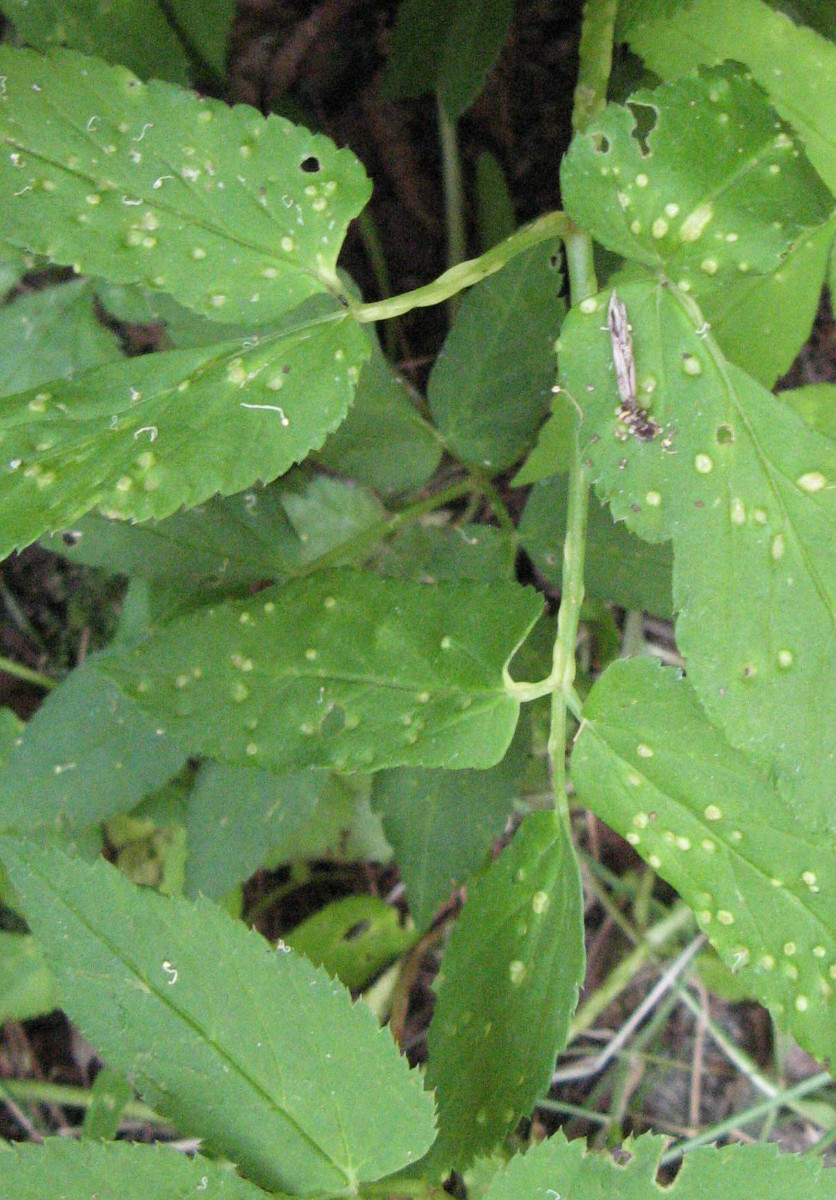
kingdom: Fungi
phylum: Ascomycota
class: Taphrinomycetes
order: Taphrinales
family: Taphrinaceae
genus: Protomyces
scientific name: Protomyces macrosporus
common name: skvalderkål-vablesæk
